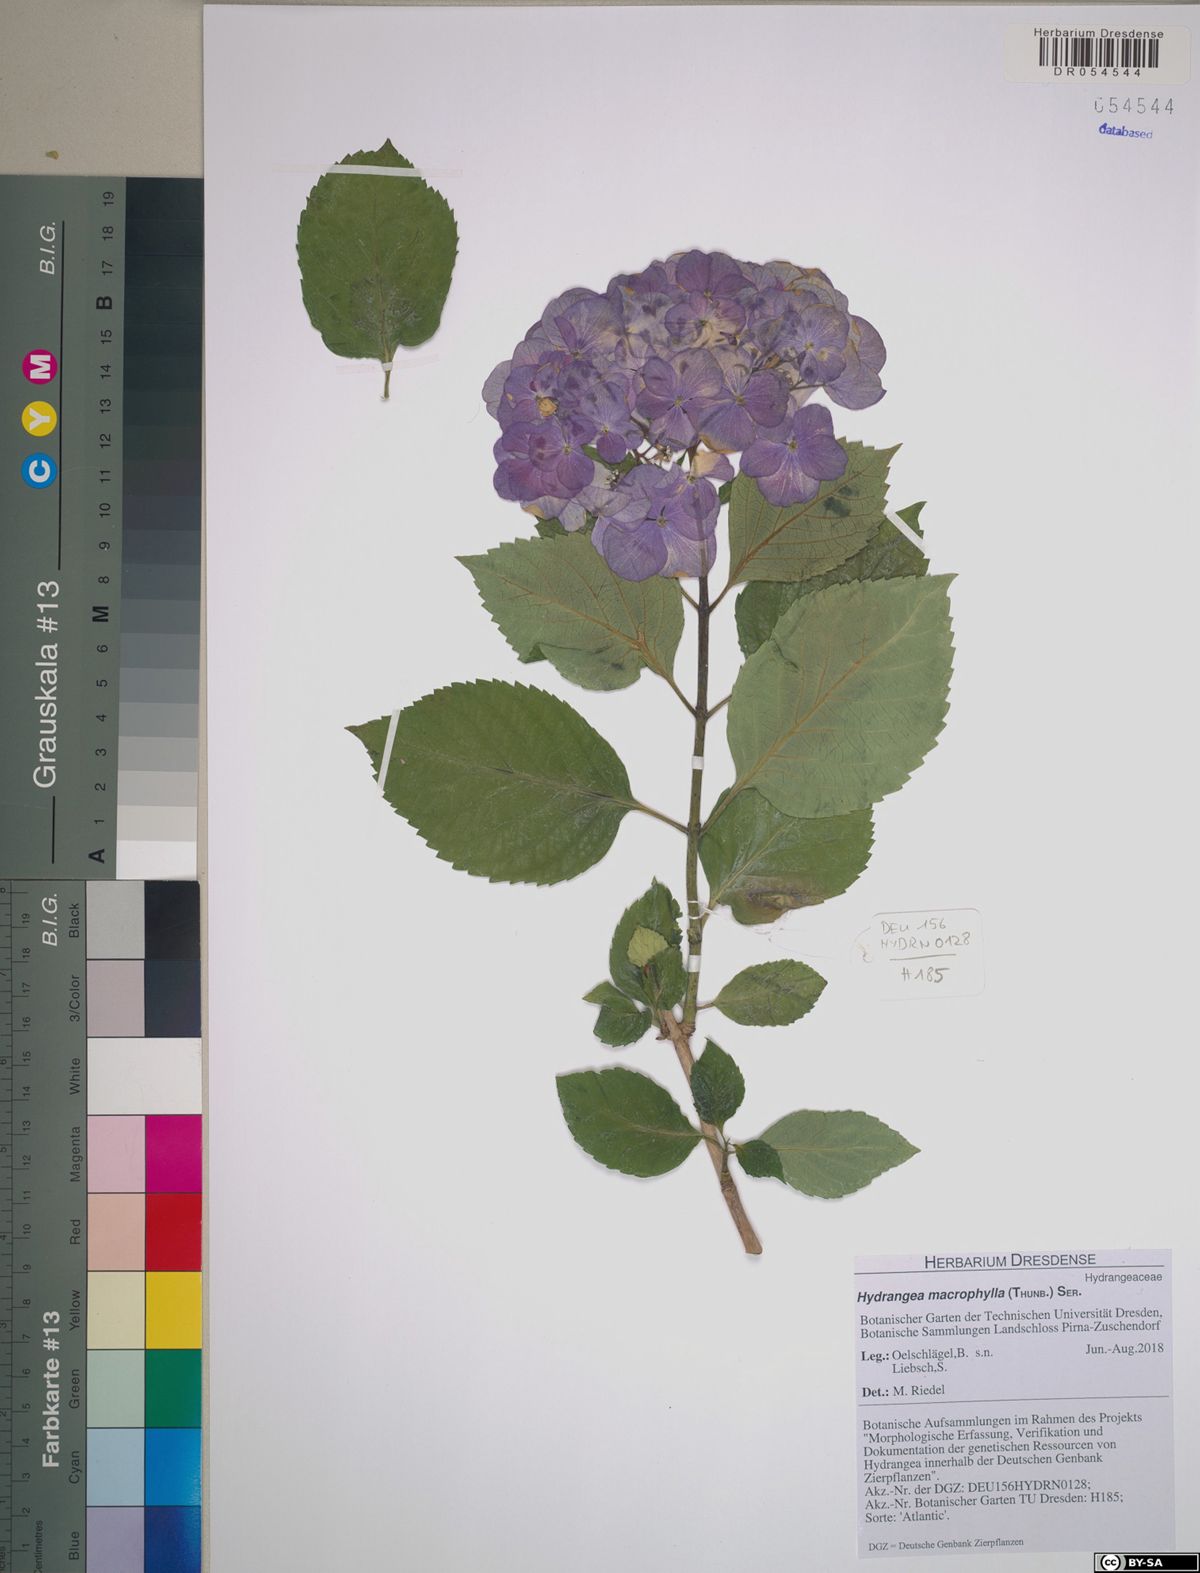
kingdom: Plantae
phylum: Tracheophyta
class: Magnoliopsida
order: Cornales
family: Hydrangeaceae
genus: Hydrangea
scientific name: Hydrangea macrophylla
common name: Hydrangea
